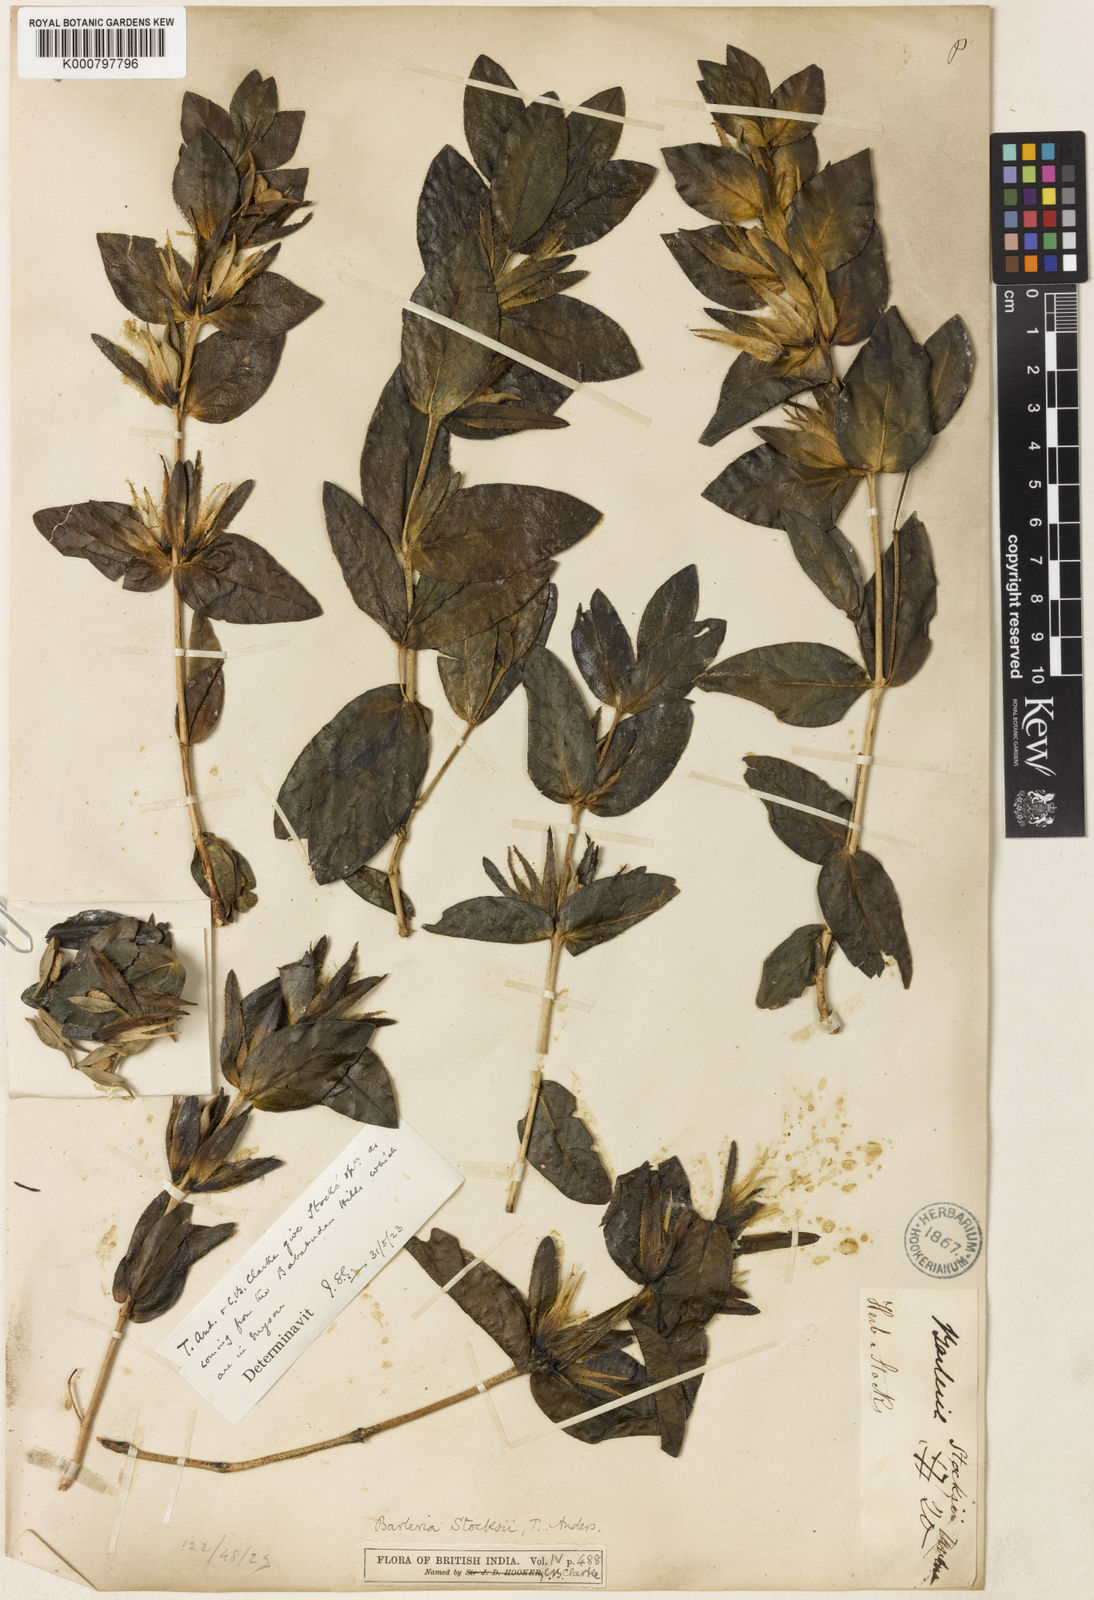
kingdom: Plantae
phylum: Tracheophyta
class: Magnoliopsida
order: Lamiales
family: Acanthaceae
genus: Barleria
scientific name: Barleria stocksii
